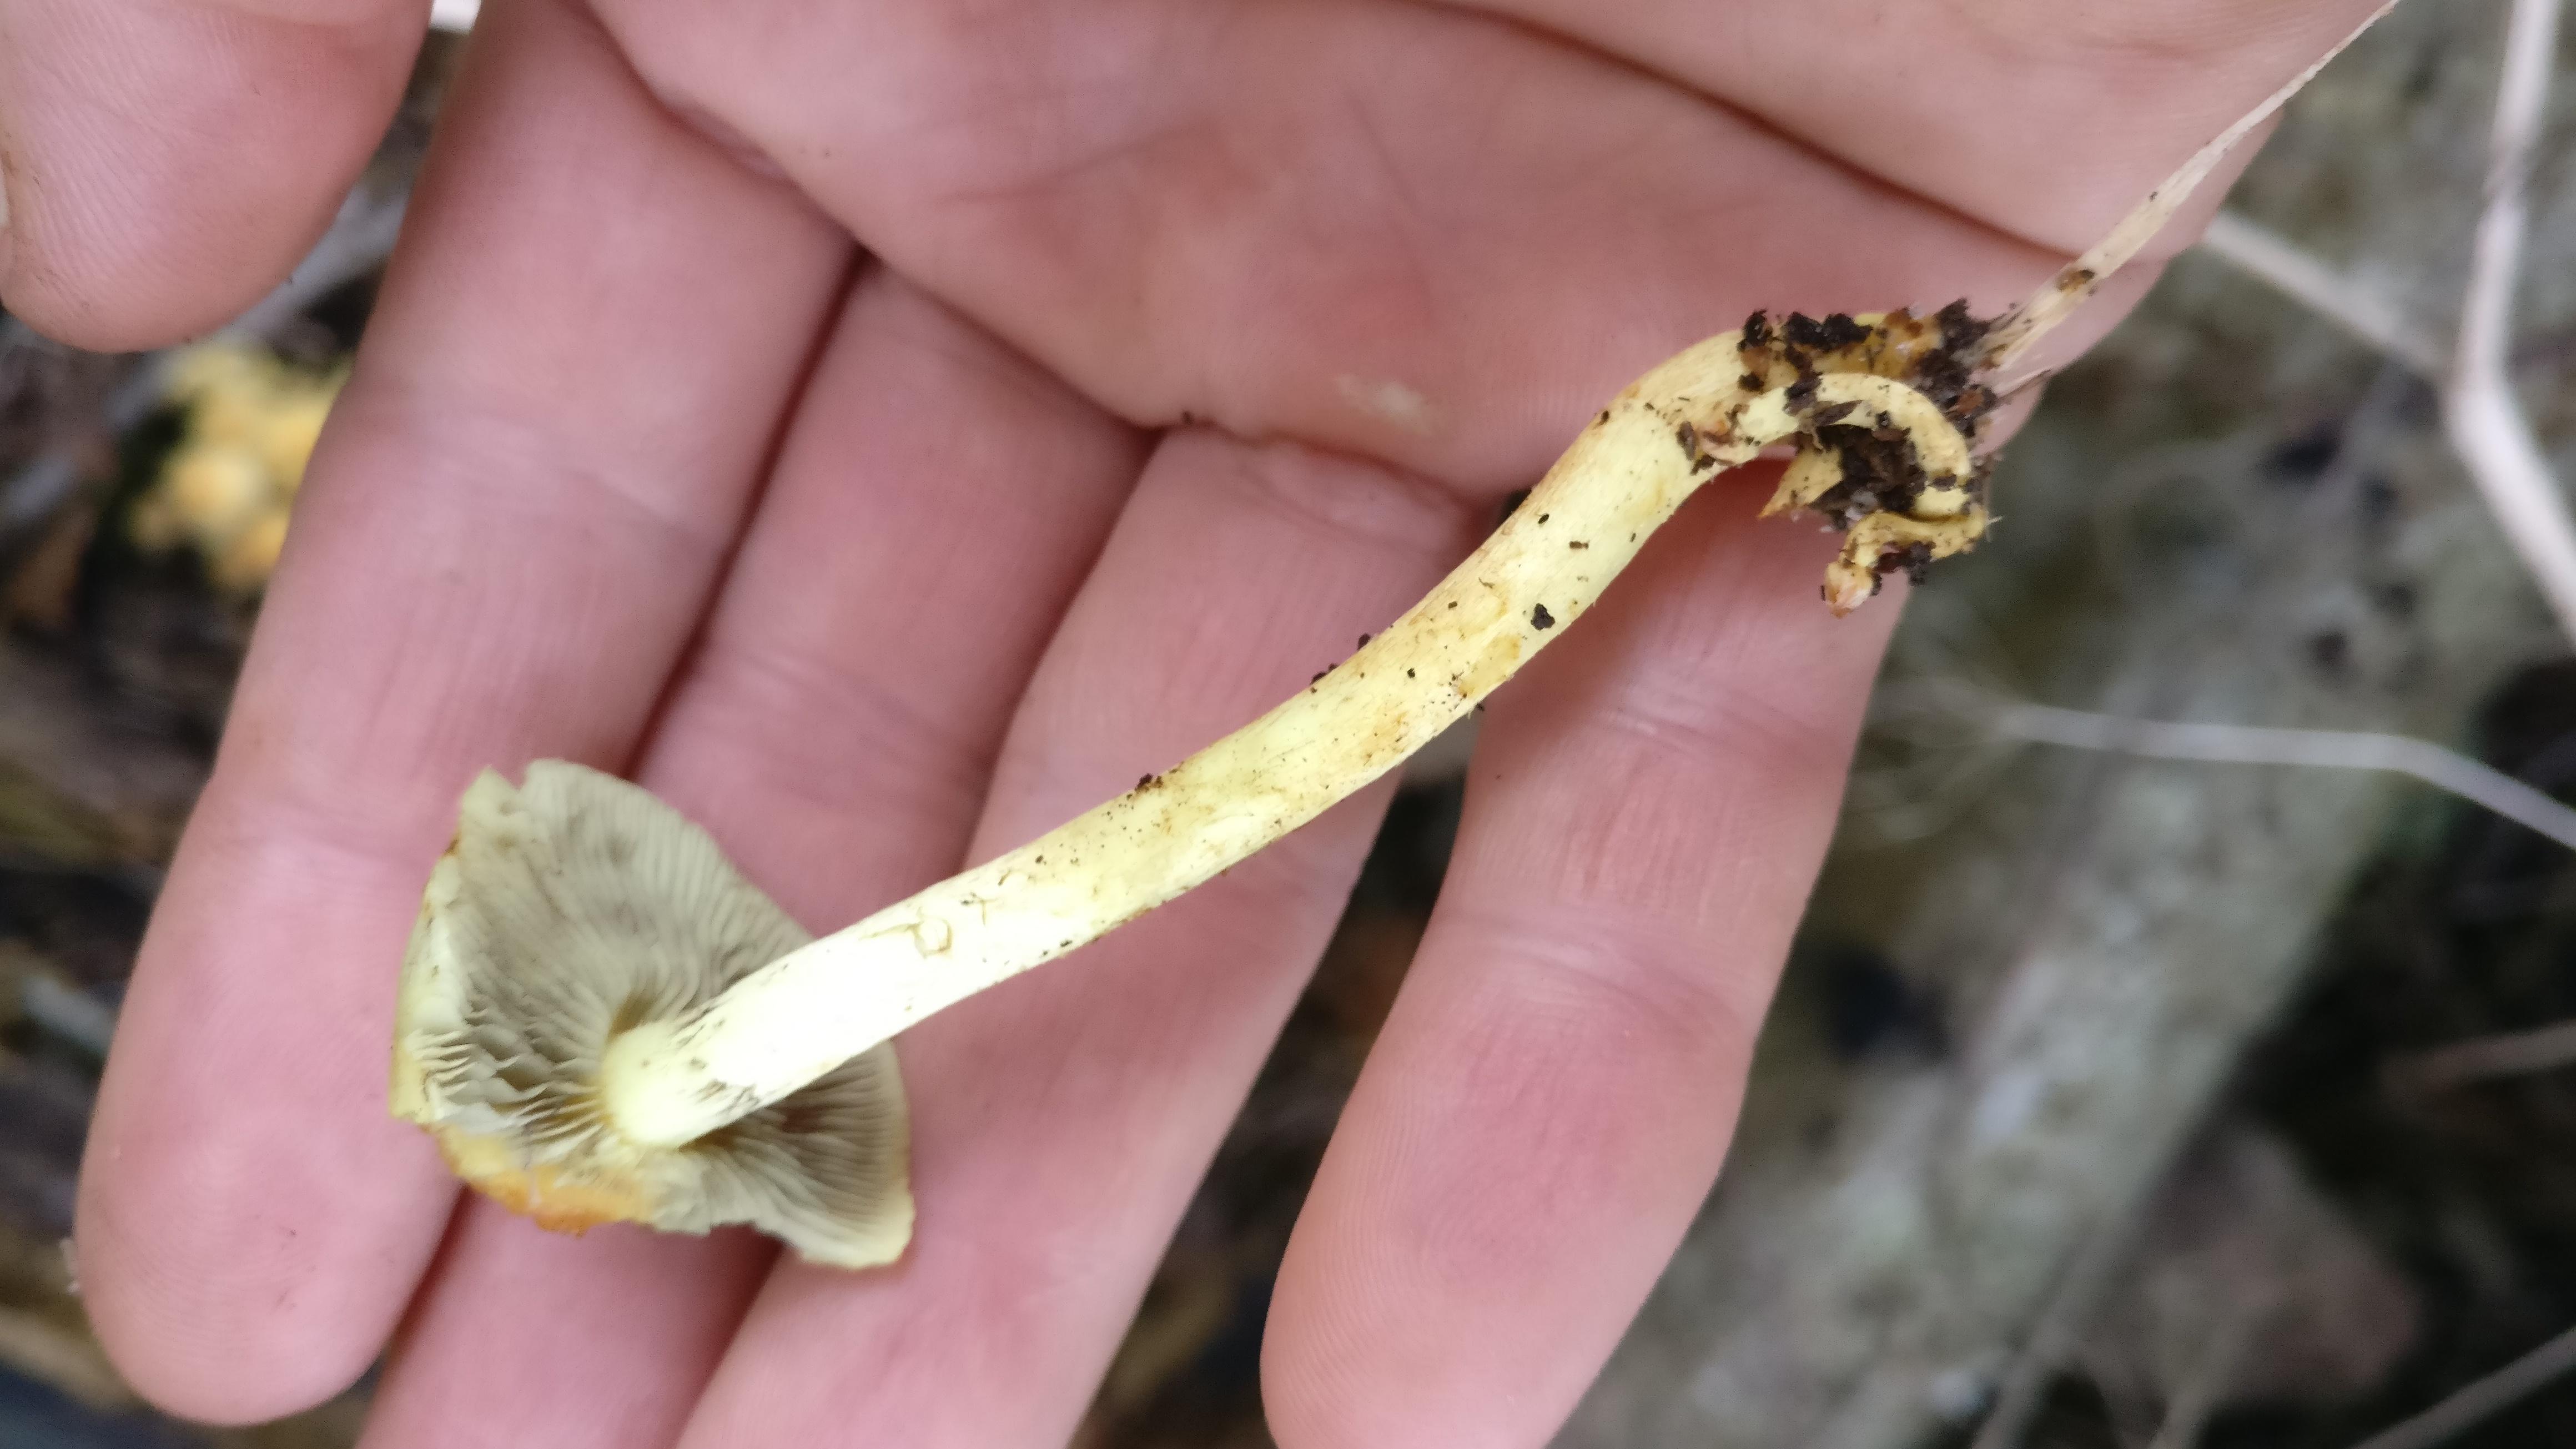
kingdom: Fungi
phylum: Basidiomycota
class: Agaricomycetes
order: Agaricales
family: Strophariaceae
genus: Hypholoma
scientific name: Hypholoma fasciculare
